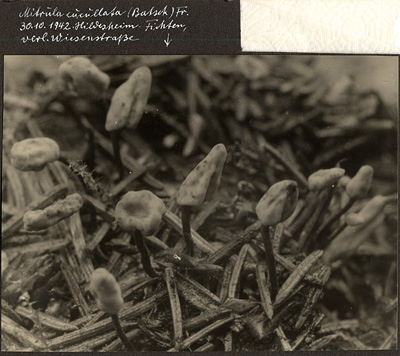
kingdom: Fungi
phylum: Ascomycota
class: Leotiomycetes
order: Helotiales
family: Cenangiaceae
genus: Heyderia
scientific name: Heyderia abietis
